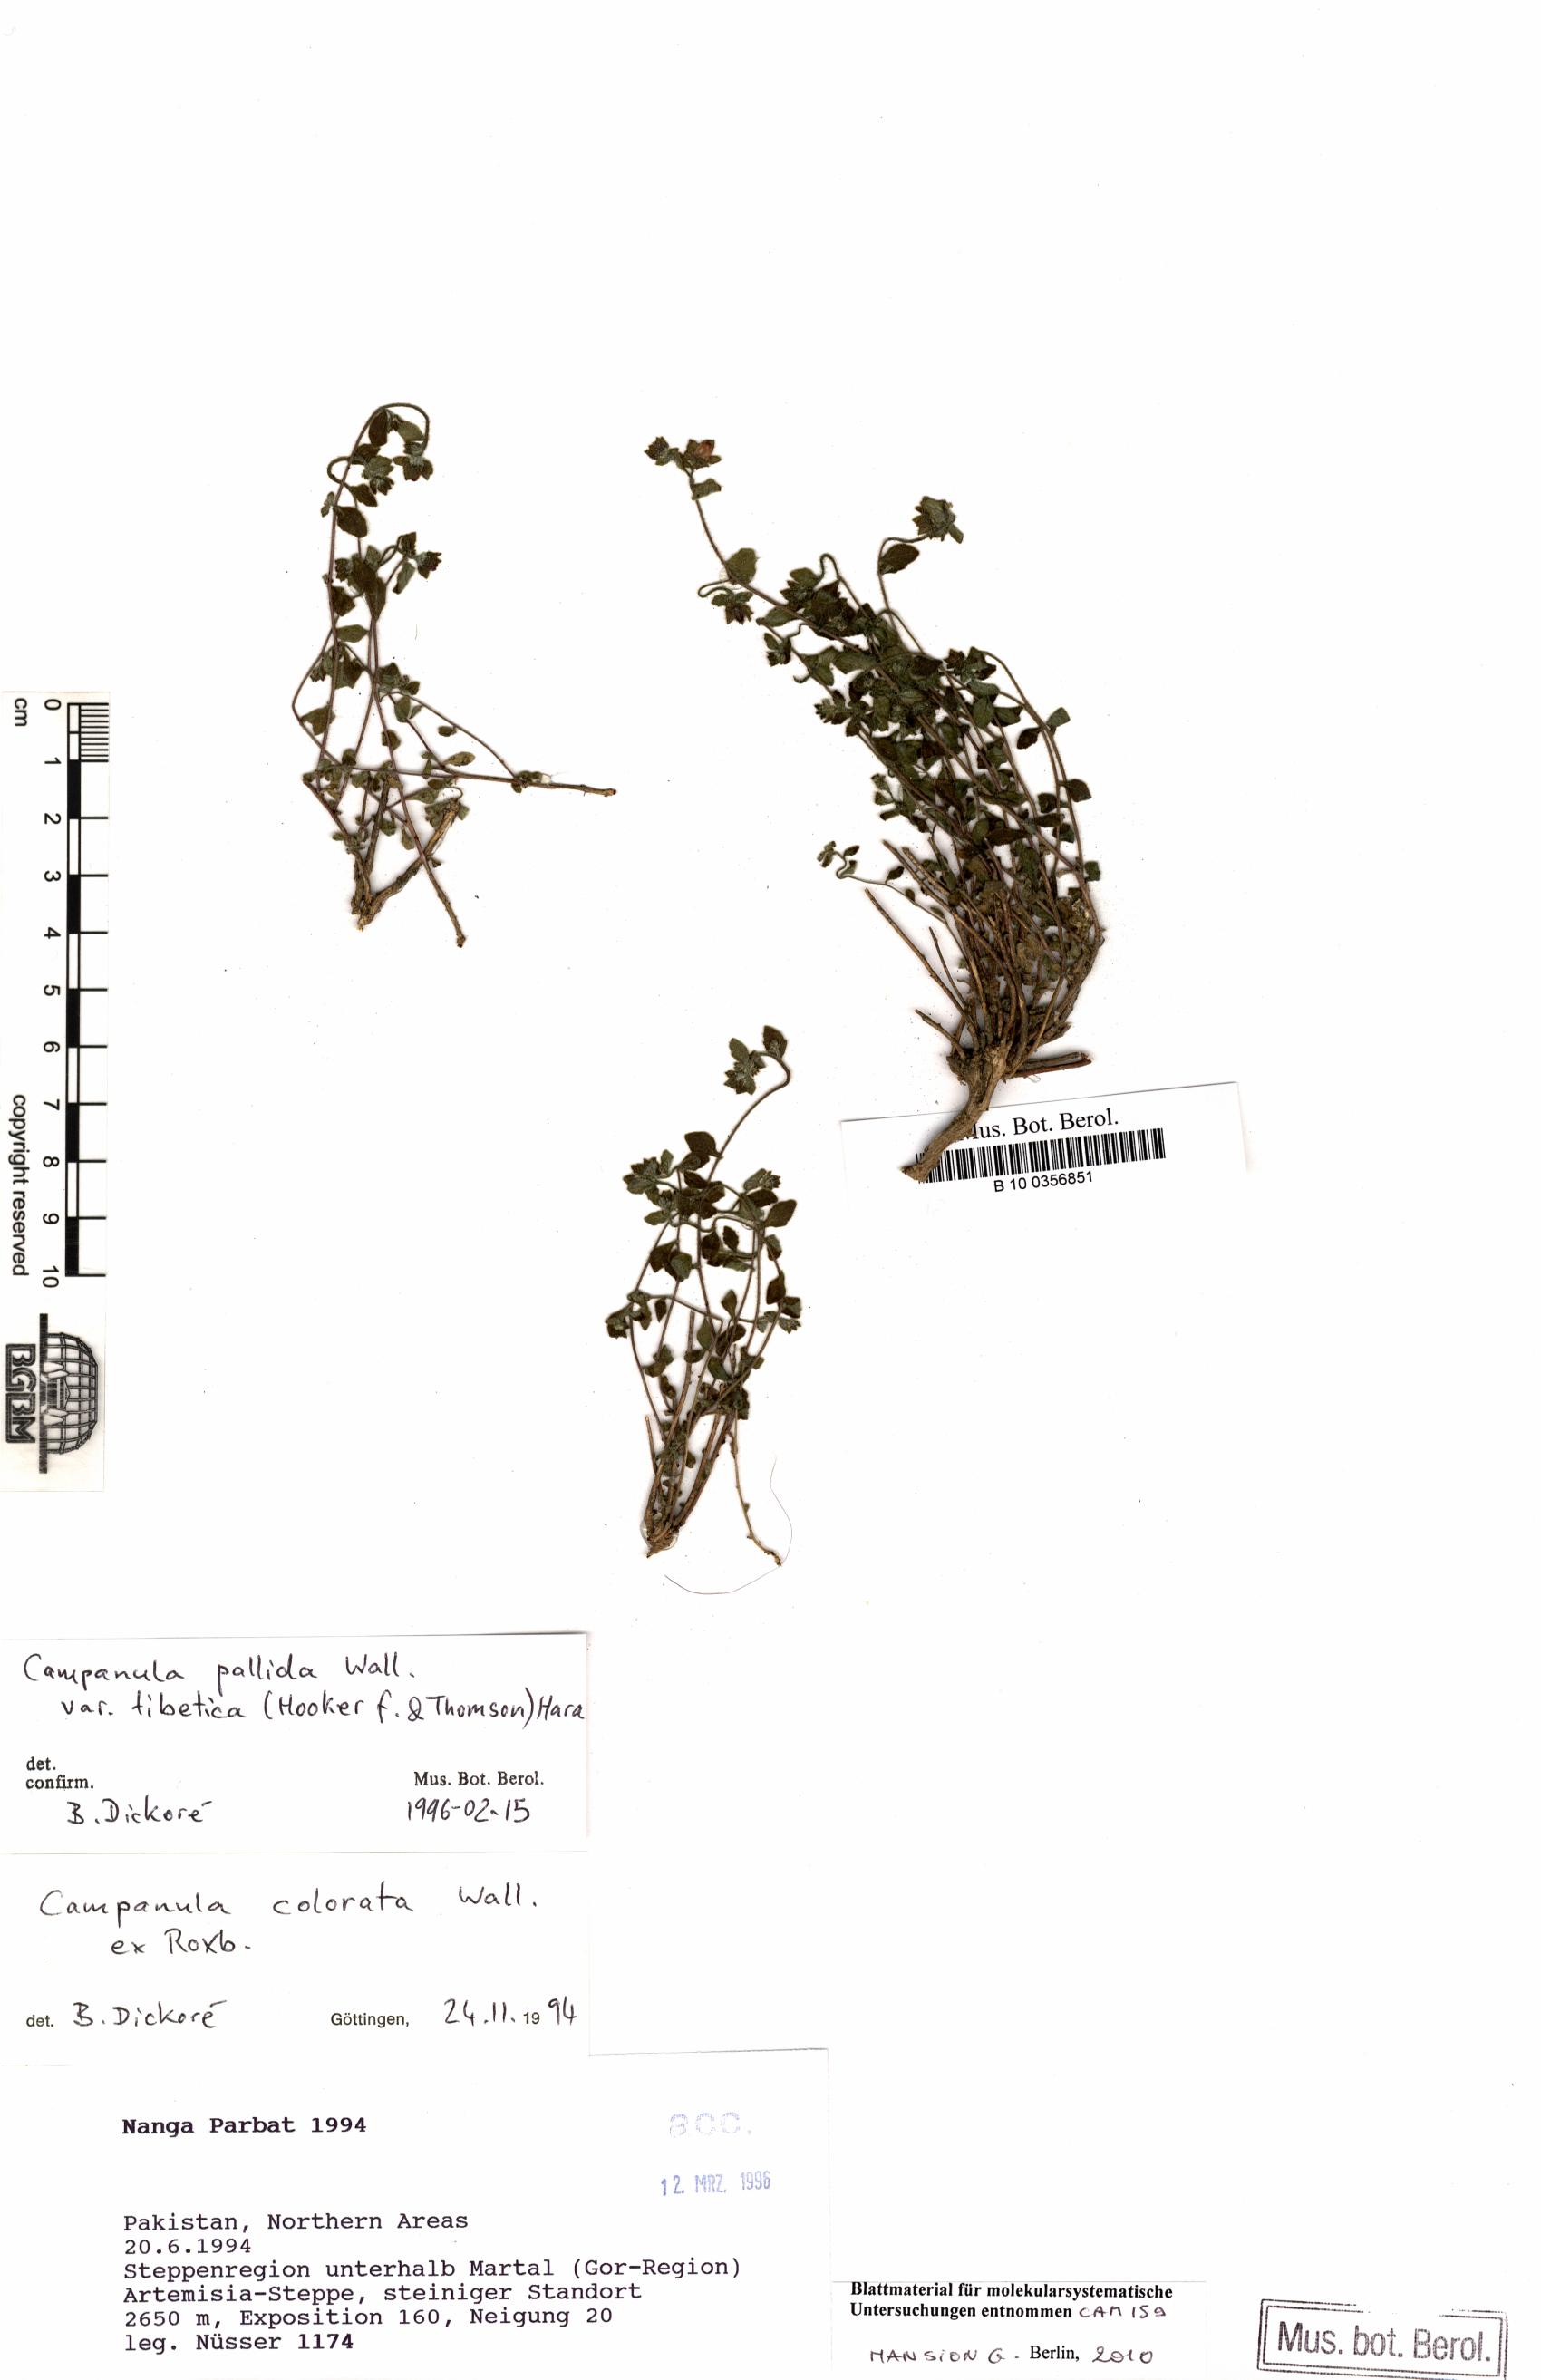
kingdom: Plantae
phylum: Tracheophyta
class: Magnoliopsida
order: Asterales
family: Campanulaceae
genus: Campanula
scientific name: Campanula pallida
